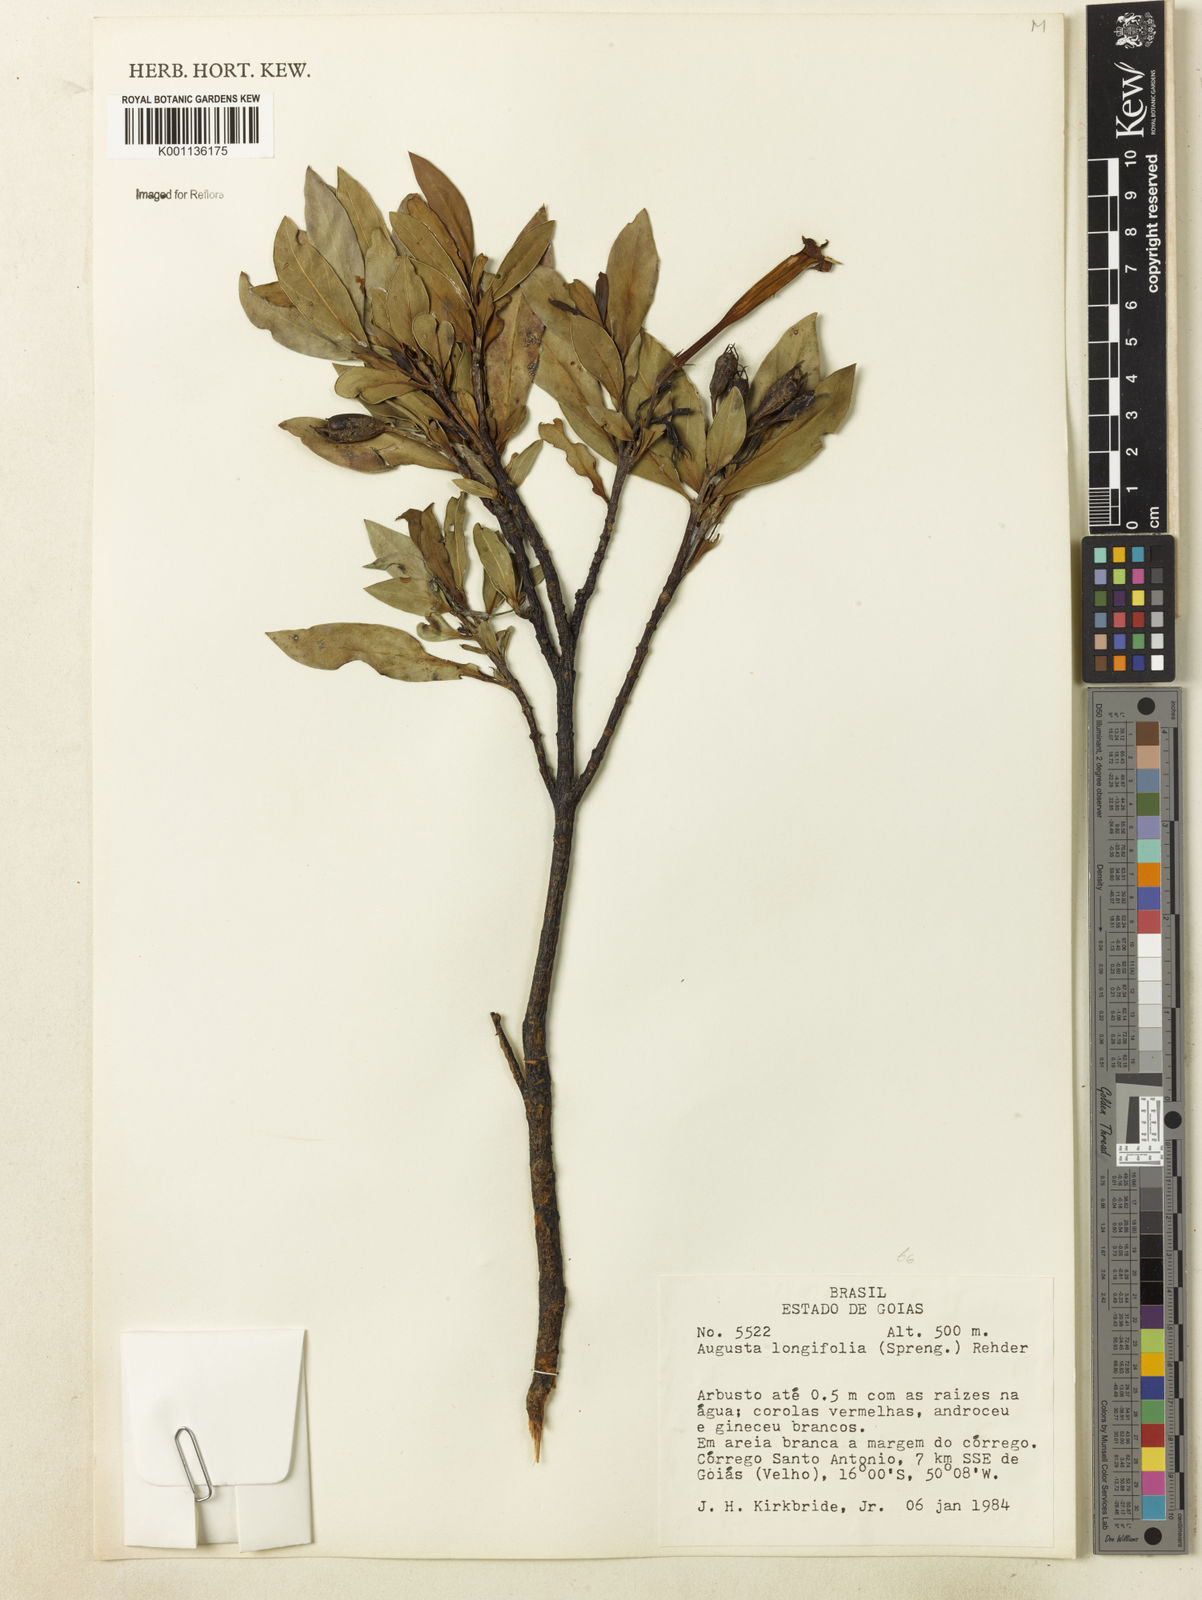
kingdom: Plantae
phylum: Tracheophyta
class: Magnoliopsida
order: Gentianales
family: Rubiaceae
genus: Augusta
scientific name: Augusta longifolia
